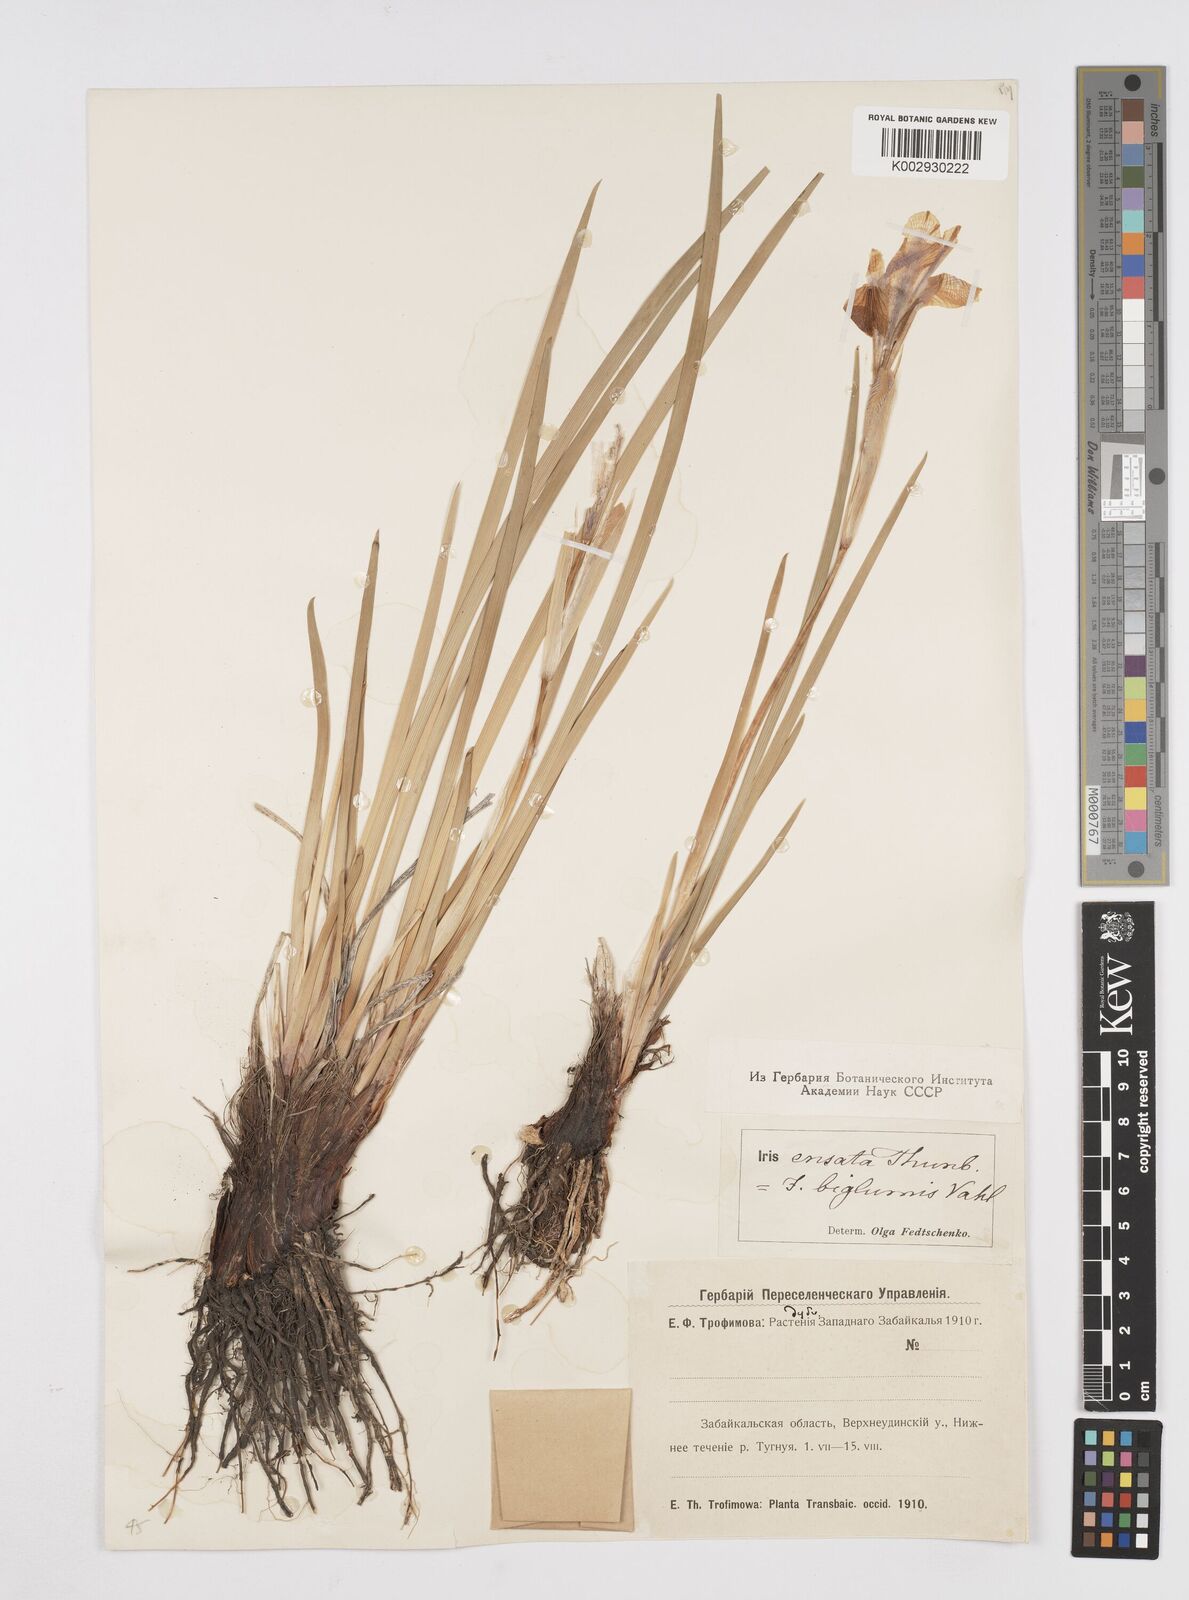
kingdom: Plantae
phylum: Tracheophyta
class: Liliopsida
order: Asparagales
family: Iridaceae
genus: Iris
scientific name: Iris lactea
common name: White-flower chinese iris
